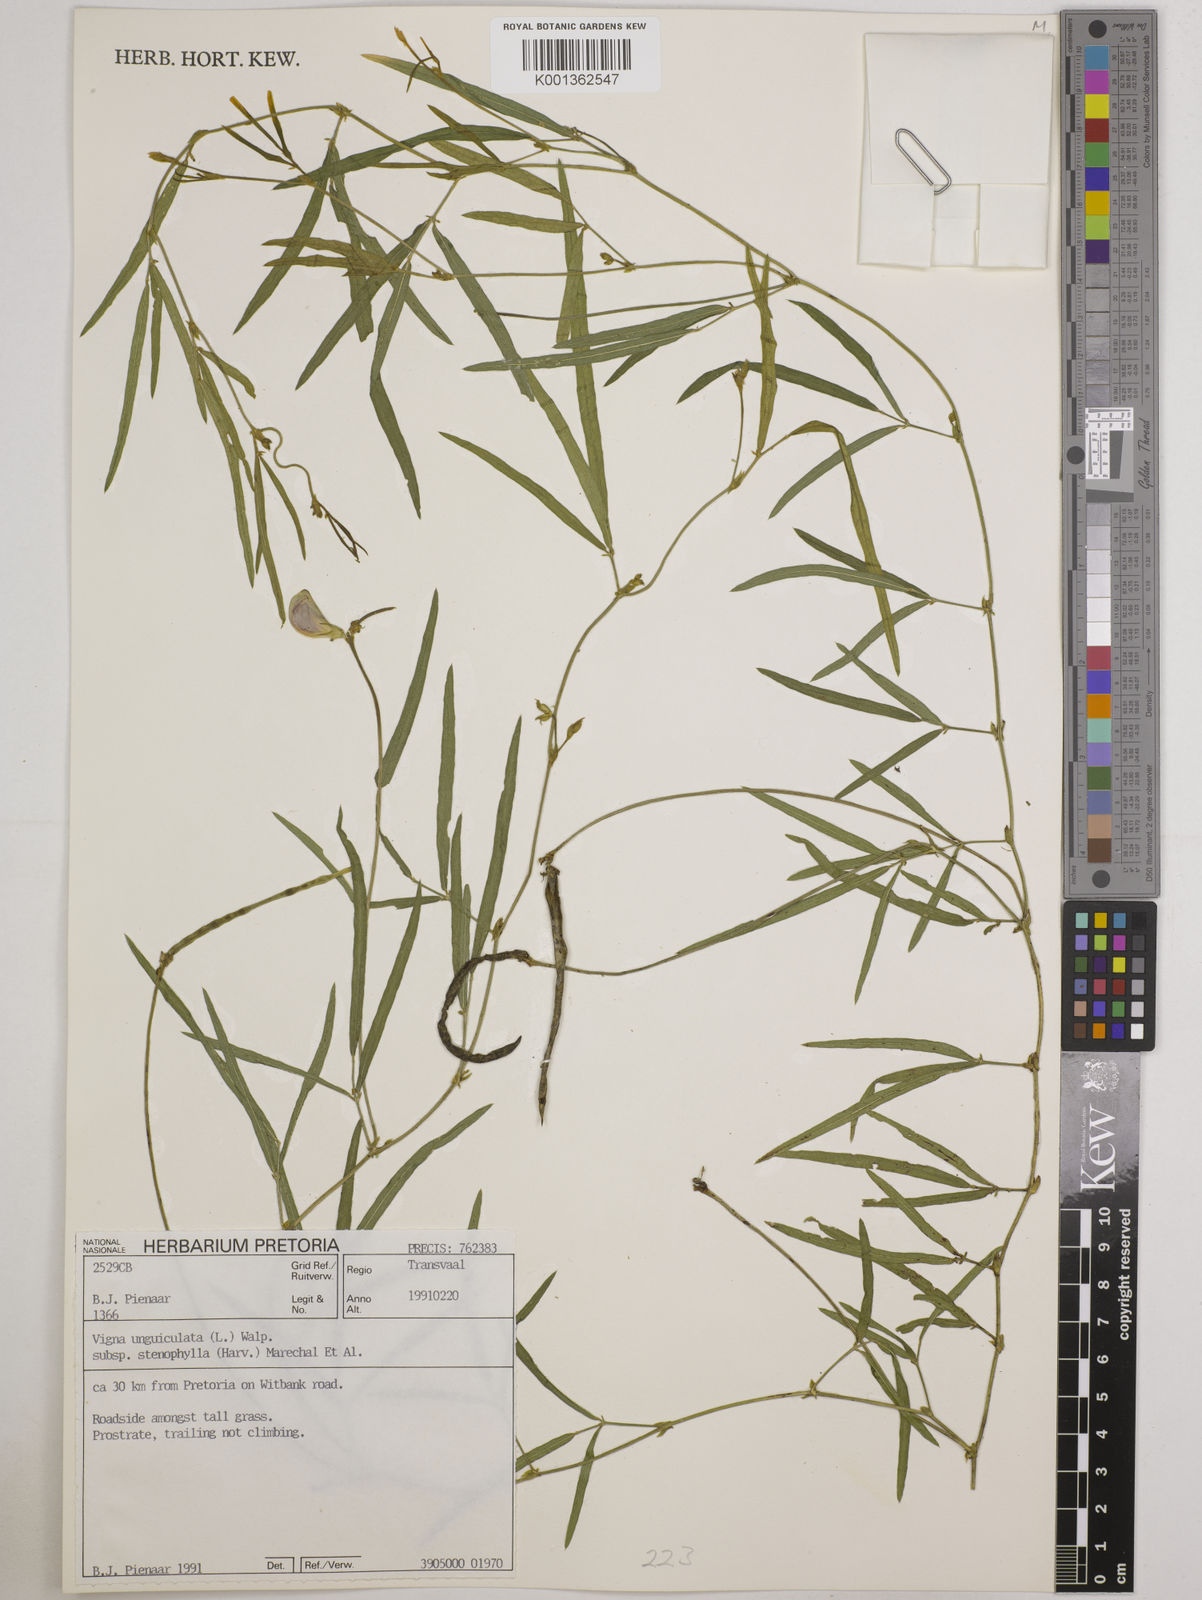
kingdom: Plantae
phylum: Tracheophyta
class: Magnoliopsida
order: Fabales
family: Fabaceae
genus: Vigna
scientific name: Vigna
